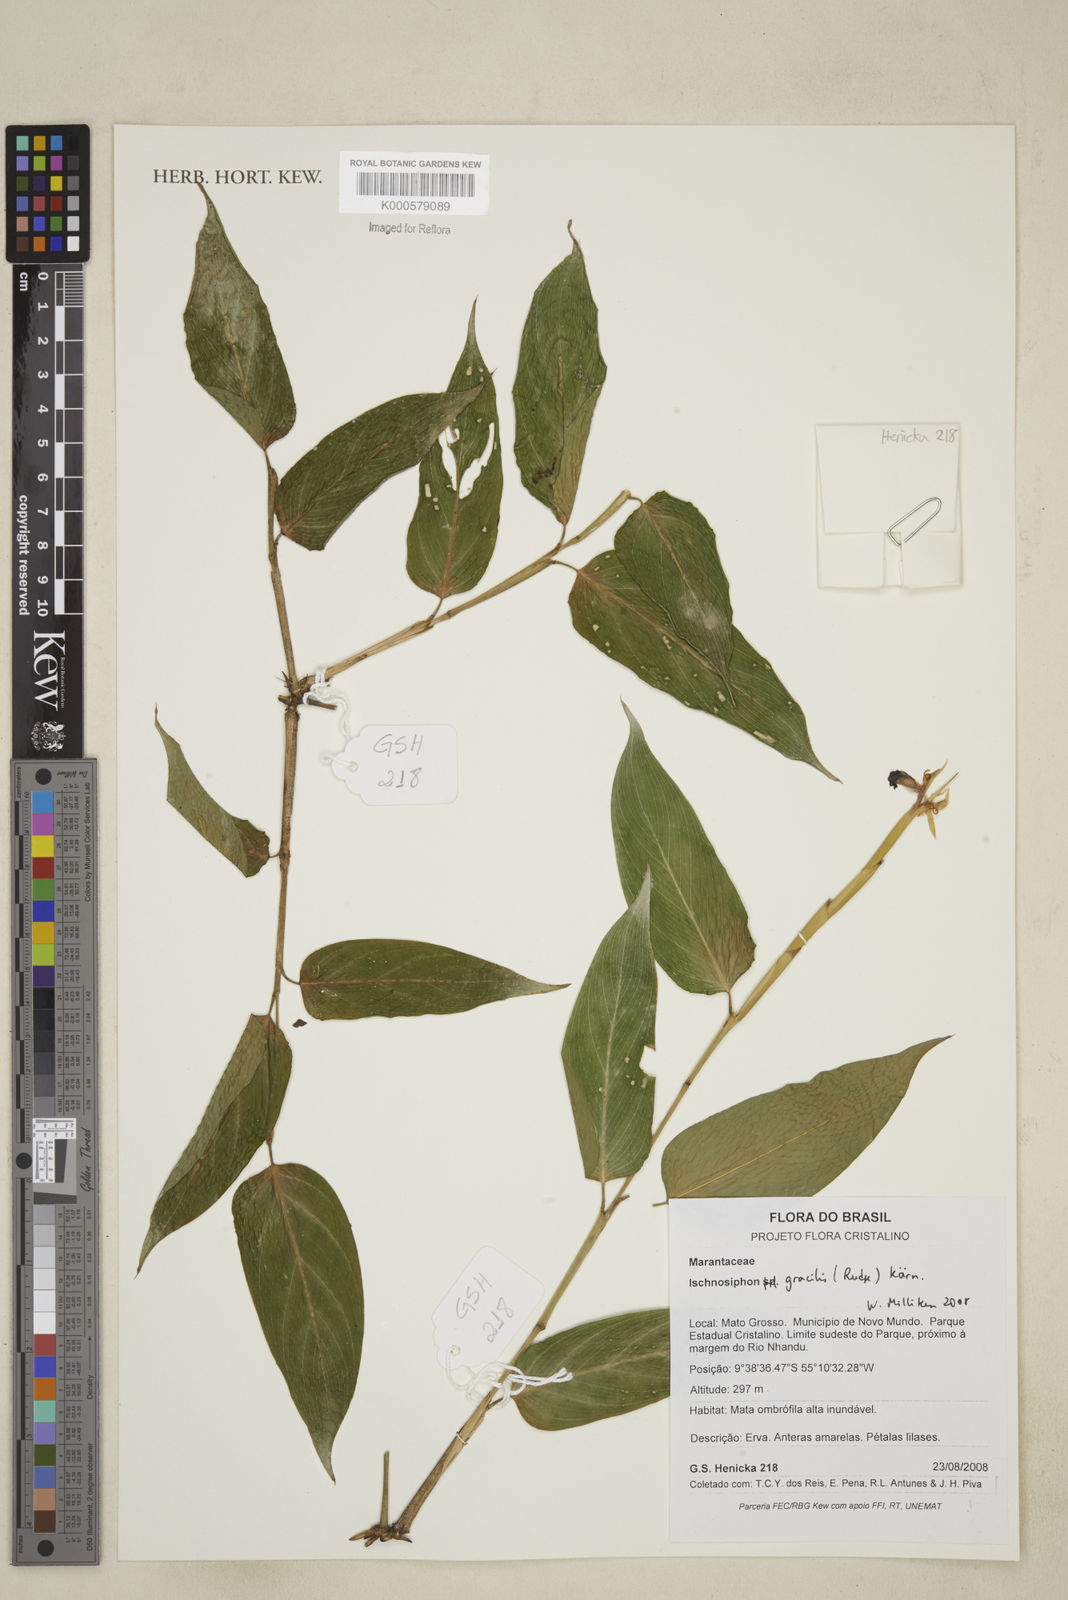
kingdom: Plantae
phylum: Tracheophyta
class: Liliopsida
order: Zingiberales
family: Marantaceae
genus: Ischnosiphon
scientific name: Ischnosiphon
